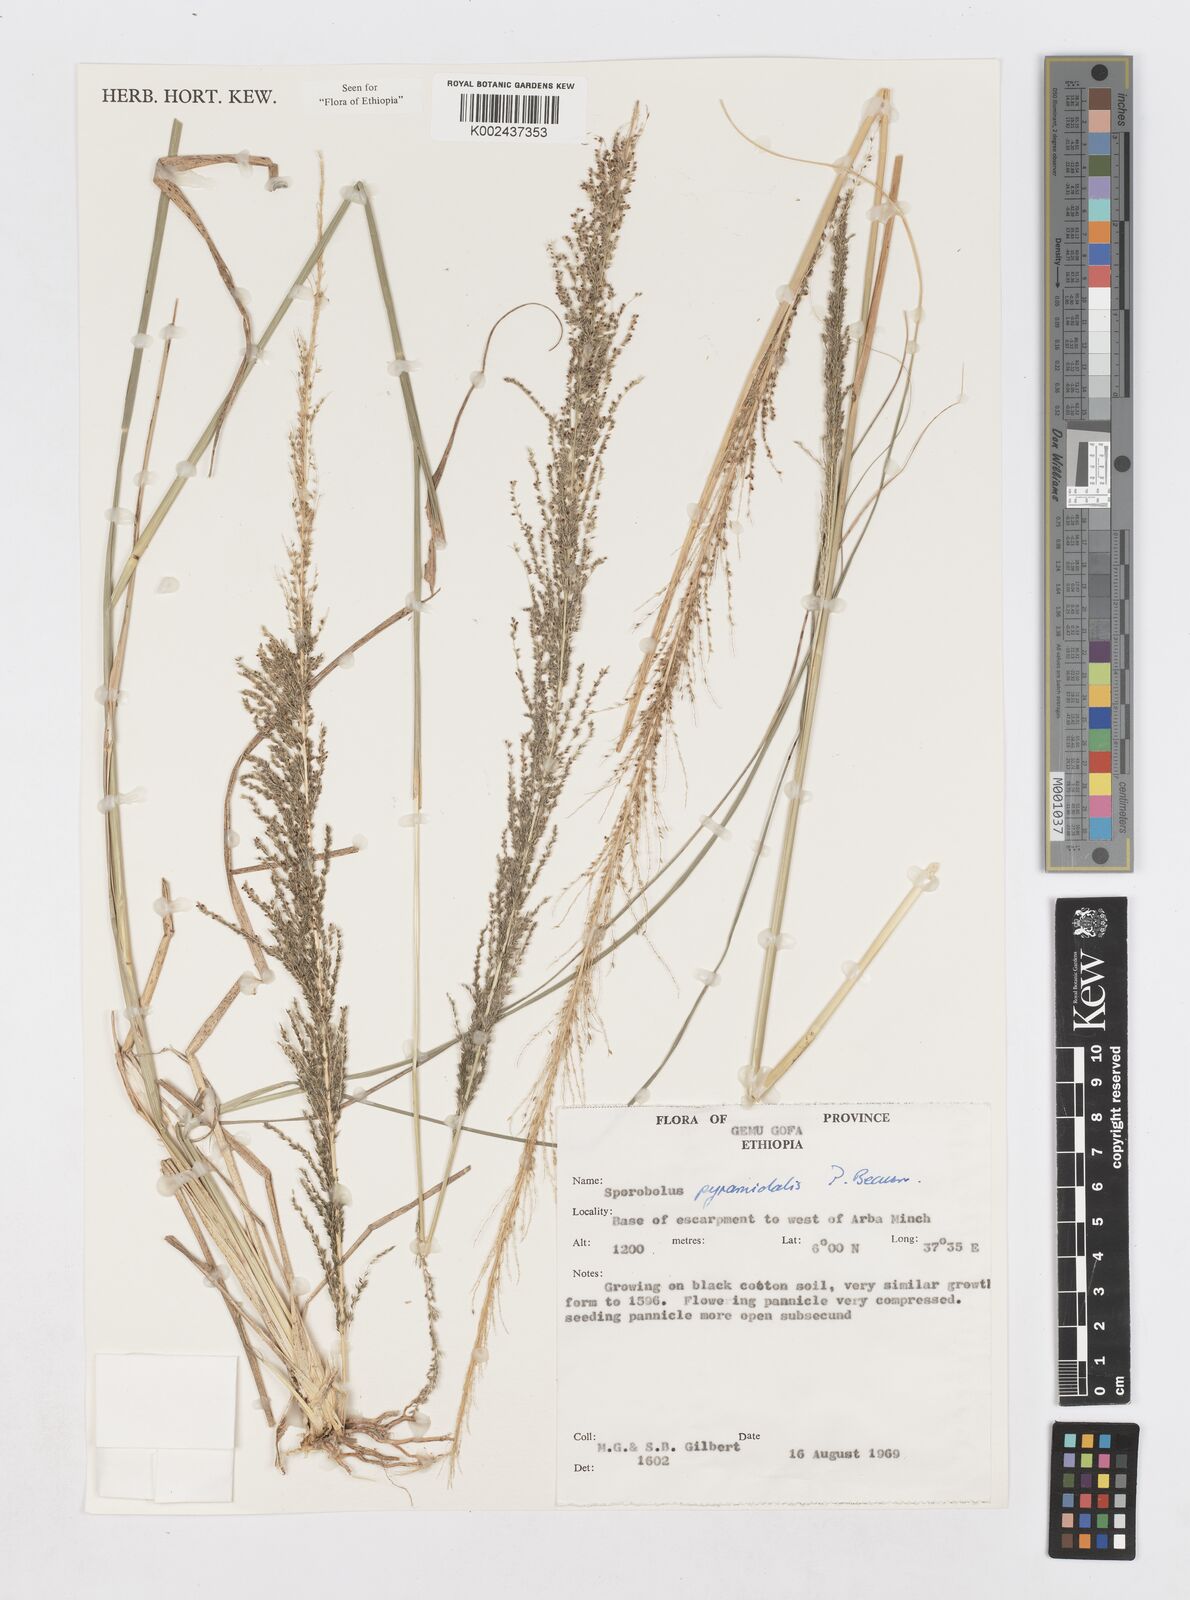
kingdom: Plantae
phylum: Tracheophyta
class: Liliopsida
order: Poales
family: Poaceae
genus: Sporobolus
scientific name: Sporobolus pyramidalis
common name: West indian dropseed
